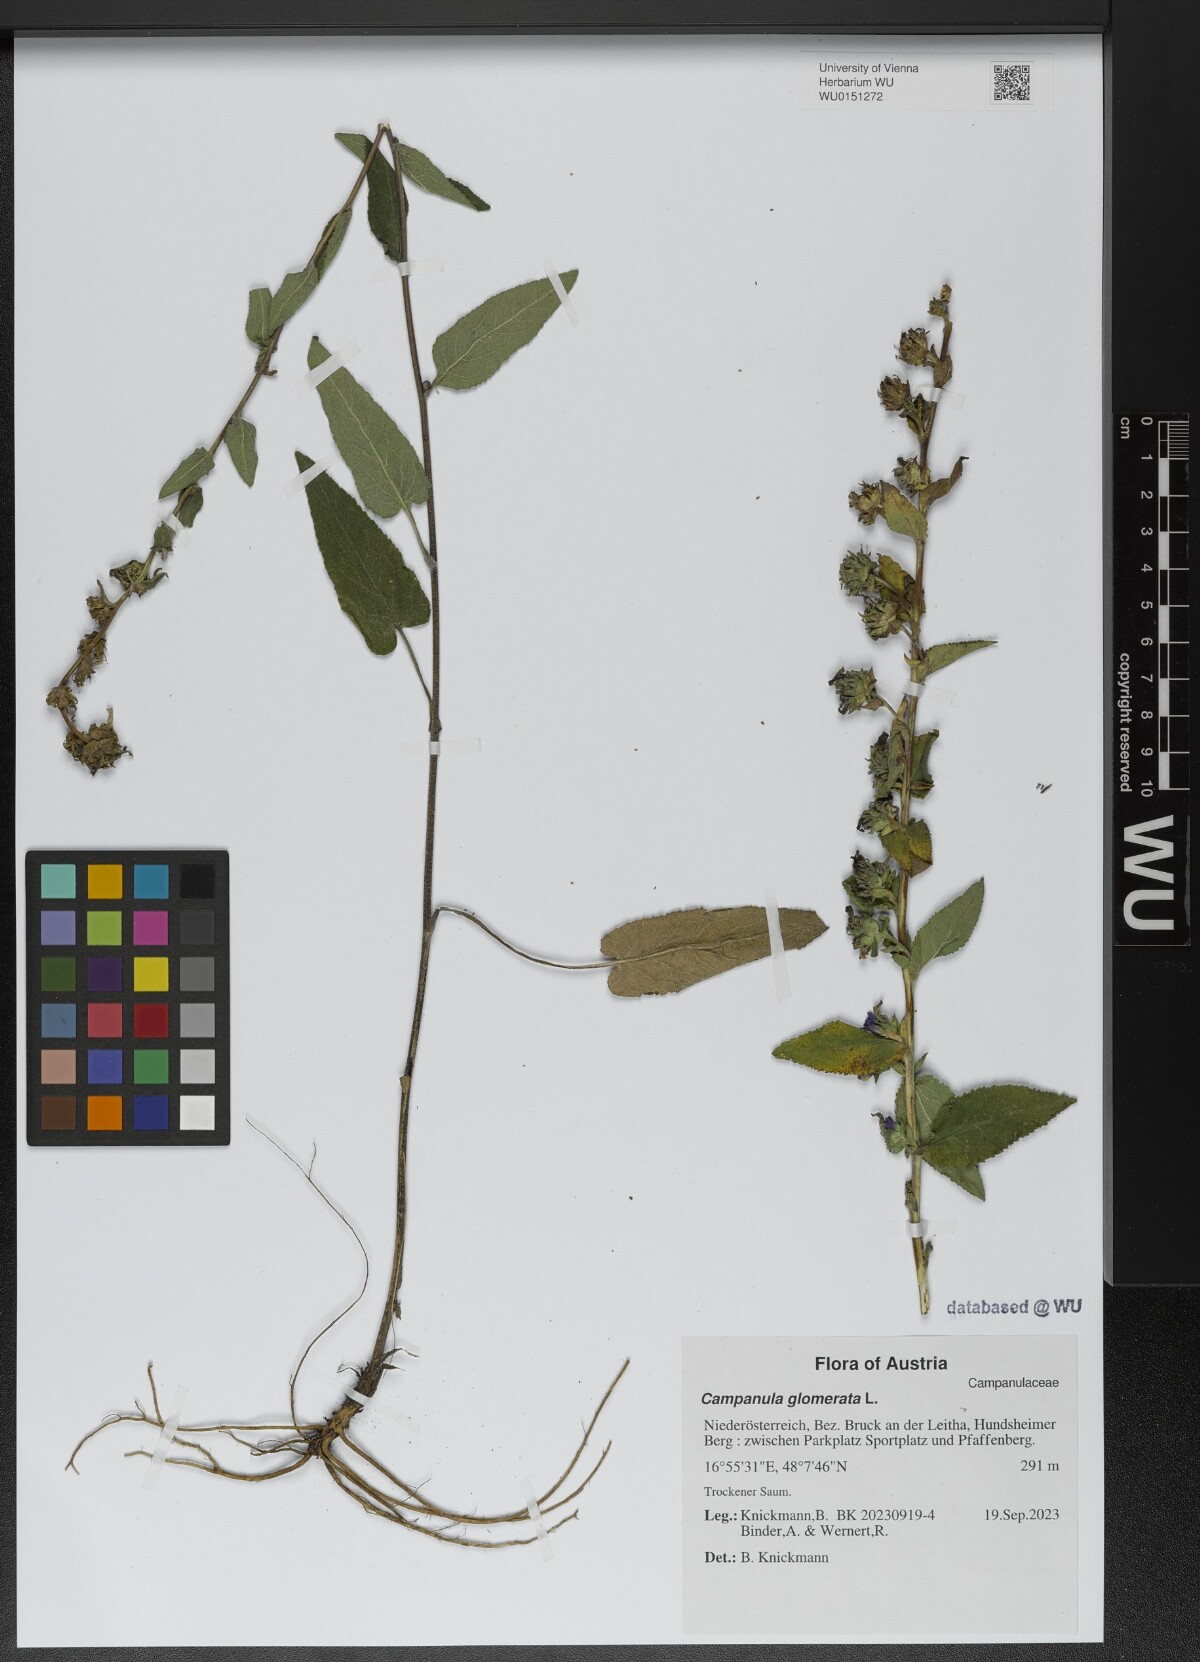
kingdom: Plantae
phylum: Tracheophyta
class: Magnoliopsida
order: Asterales
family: Campanulaceae
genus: Campanula
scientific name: Campanula glomerata
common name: Clustered bellflower
